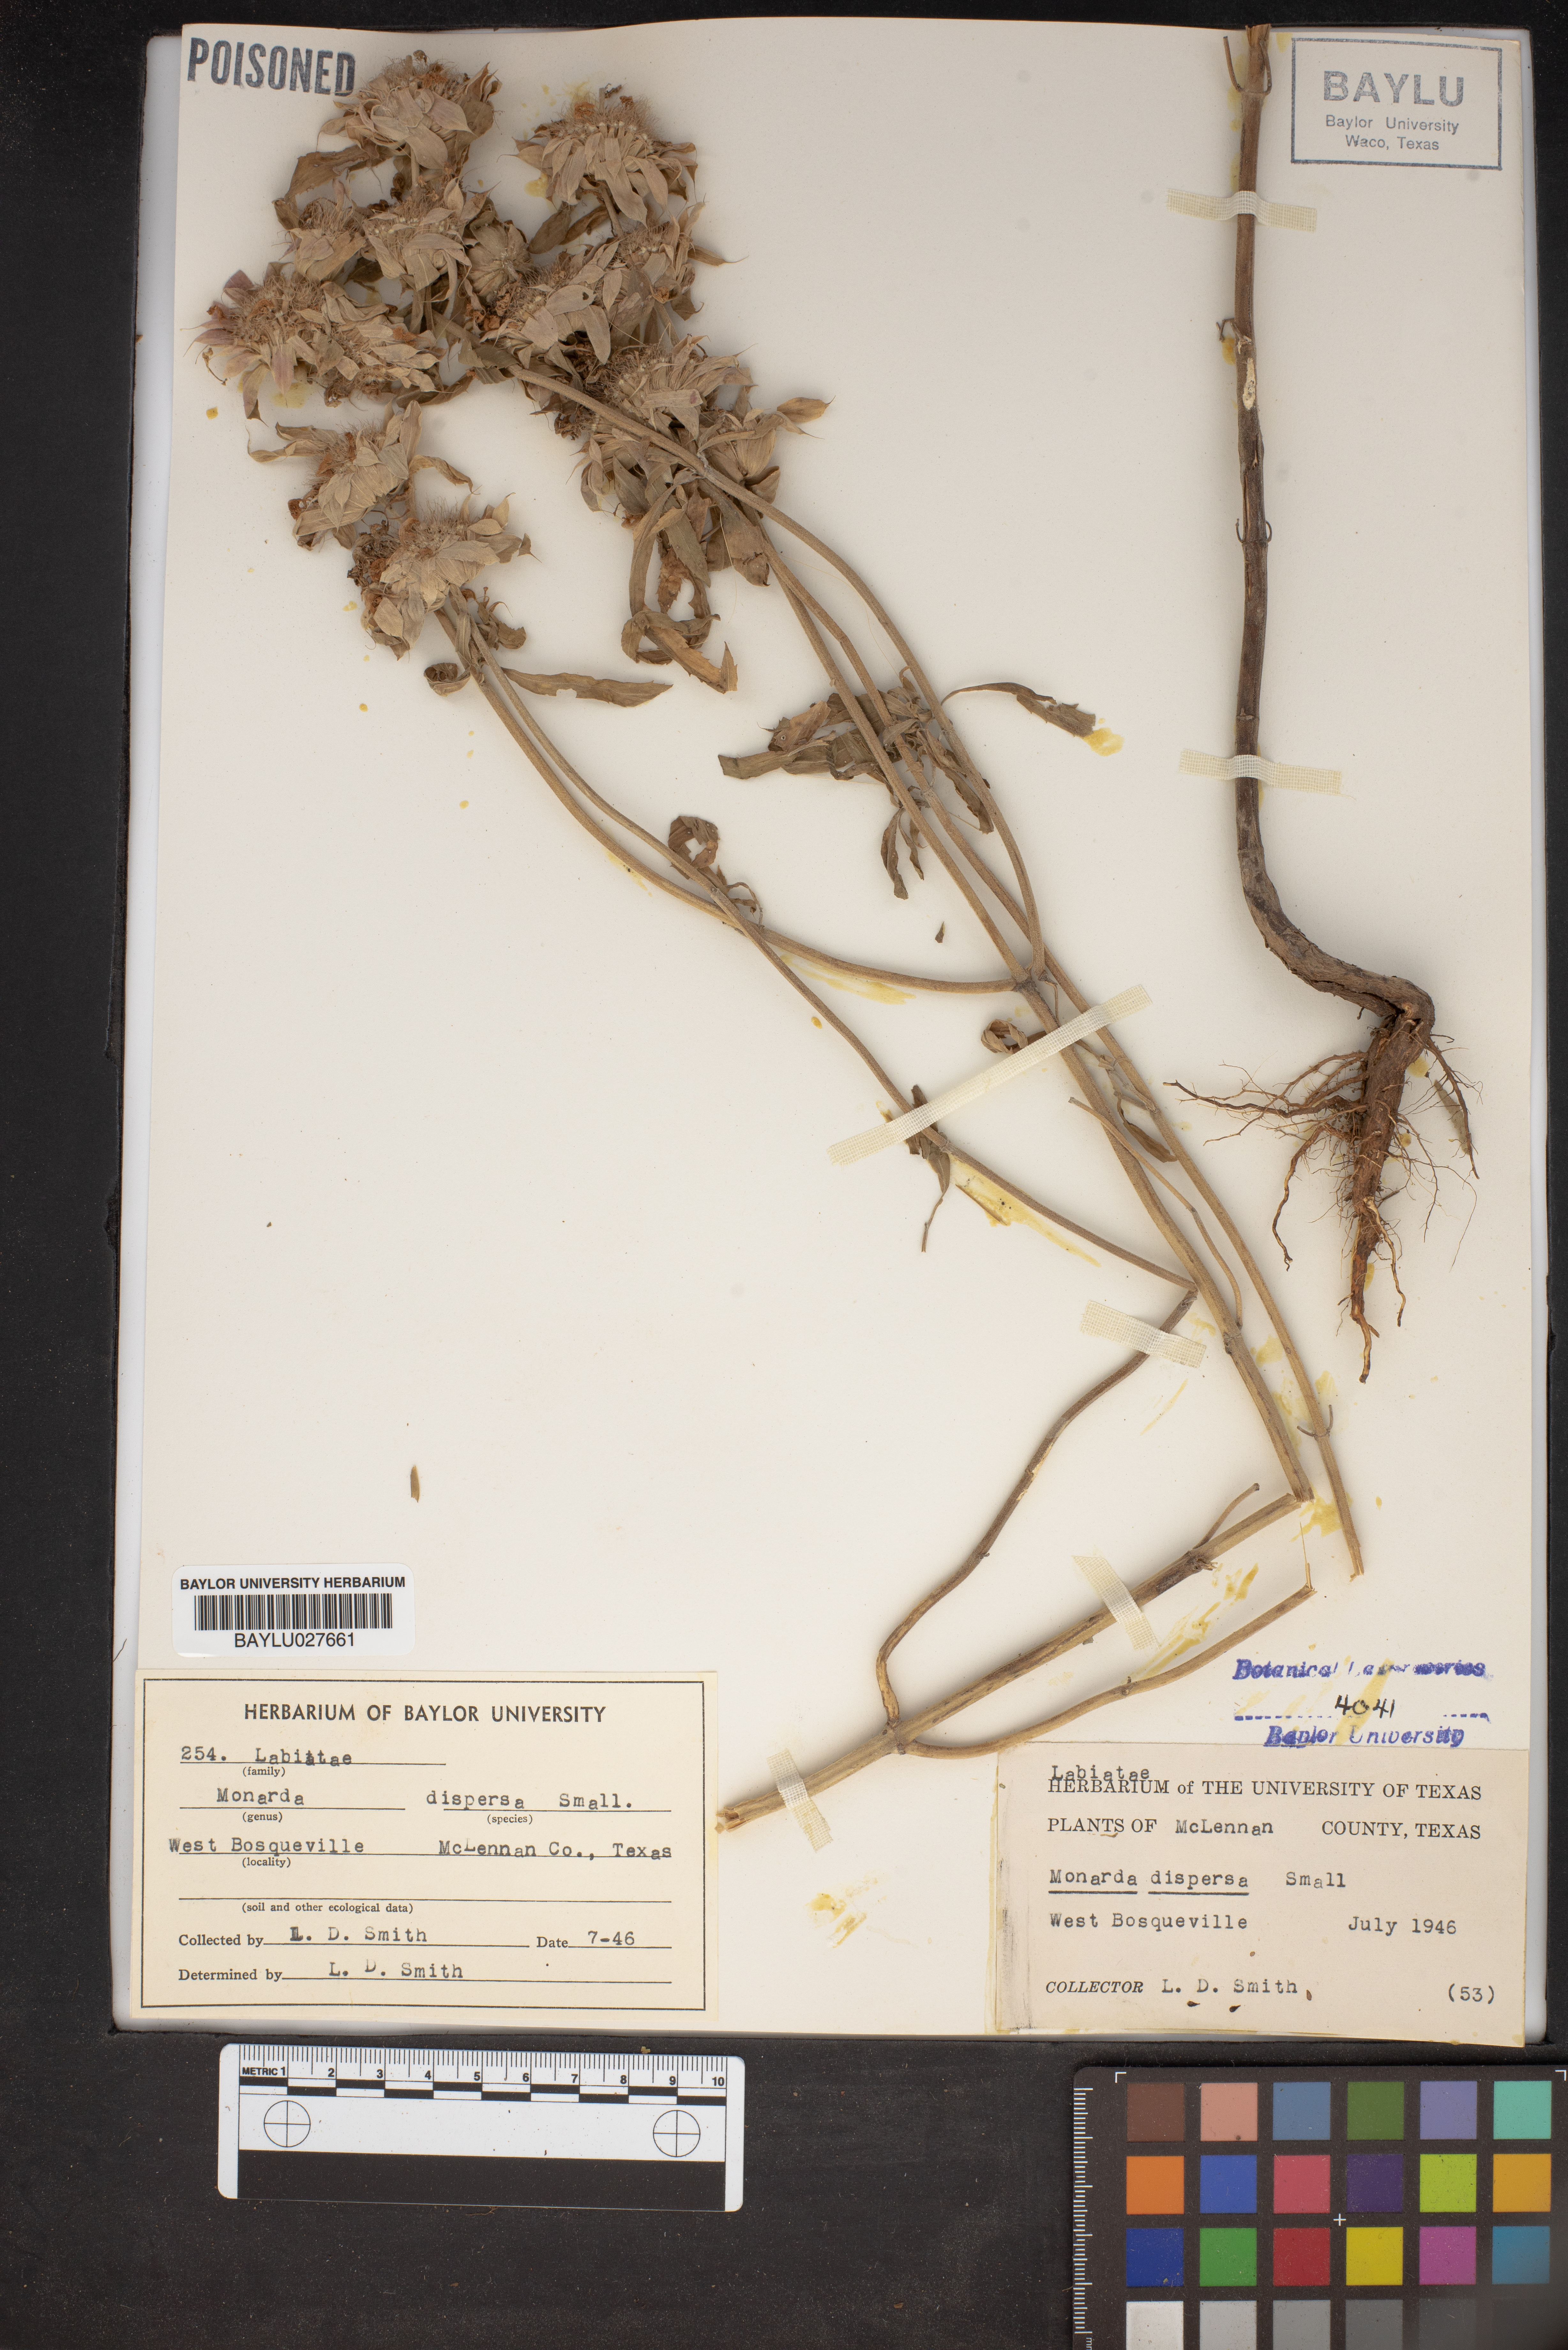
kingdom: Plantae
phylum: Tracheophyta
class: Magnoliopsida
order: Lamiales
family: Lamiaceae
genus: Monarda
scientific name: Monarda citriodora
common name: Lemon beebalm
